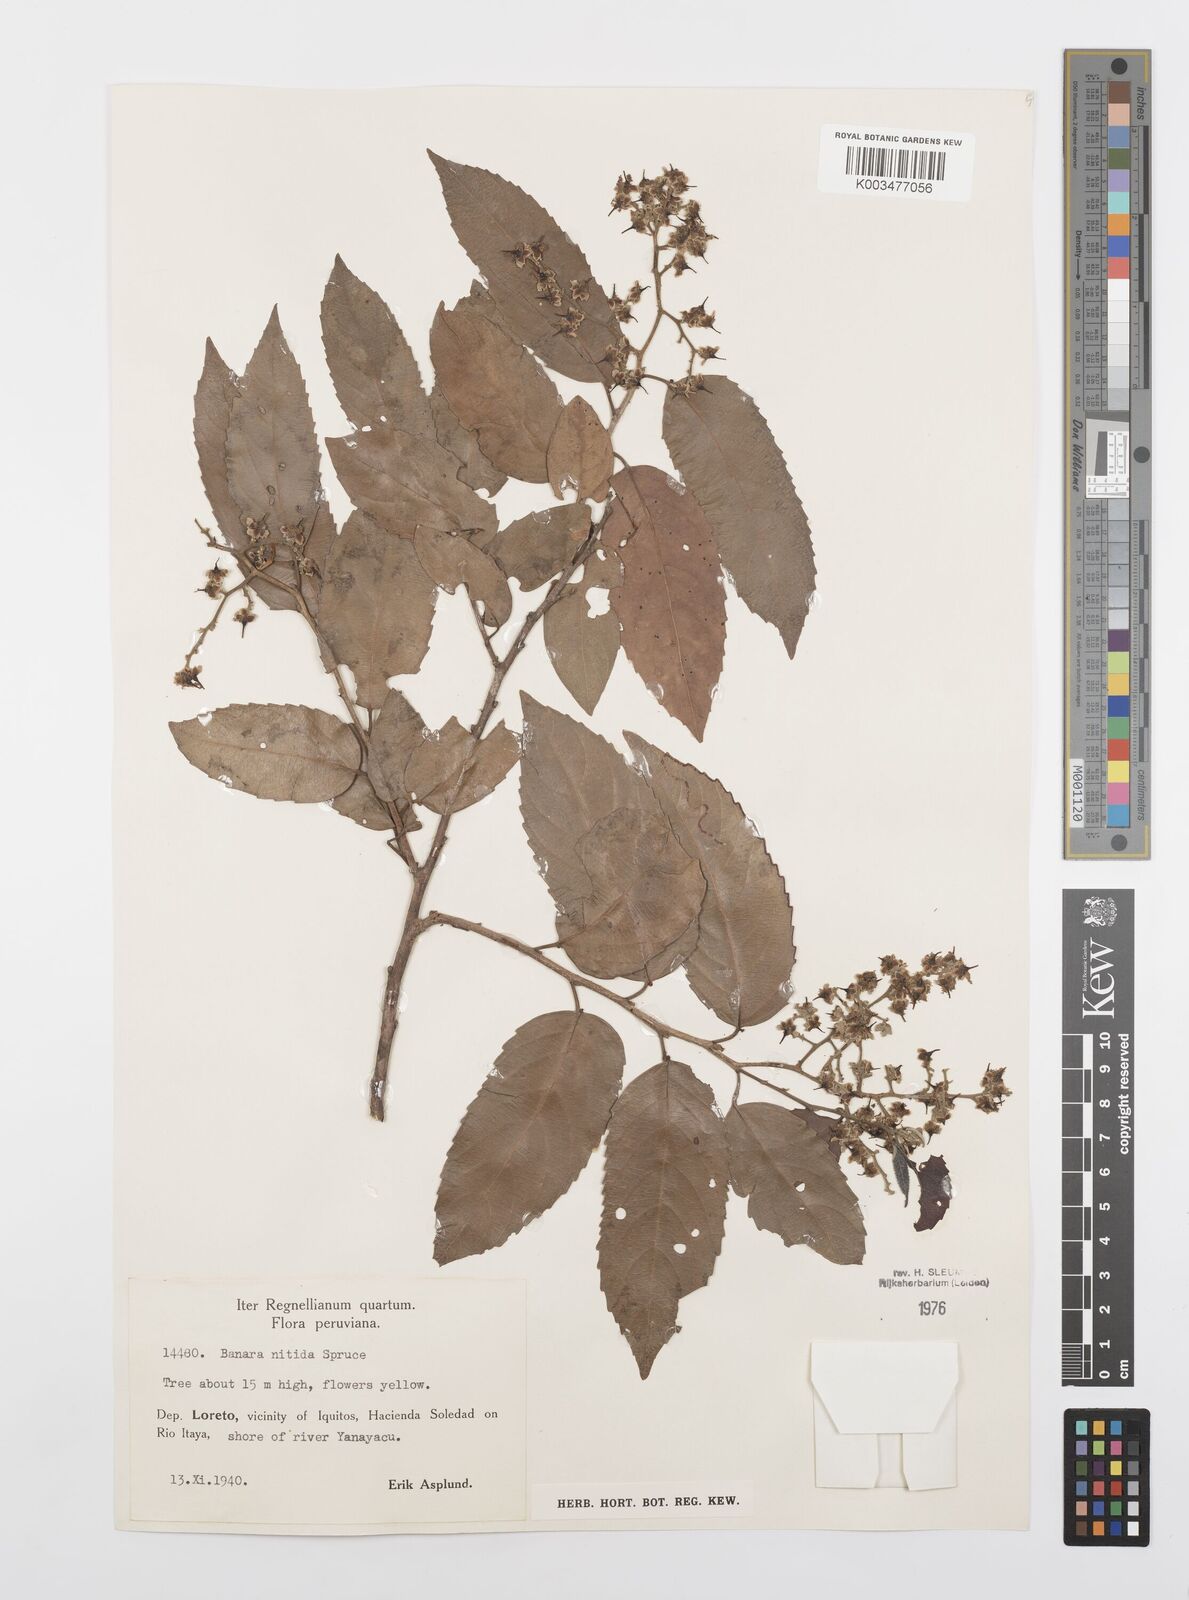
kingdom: Plantae
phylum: Tracheophyta
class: Magnoliopsida
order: Malpighiales
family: Salicaceae
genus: Banara
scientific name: Banara nitida
